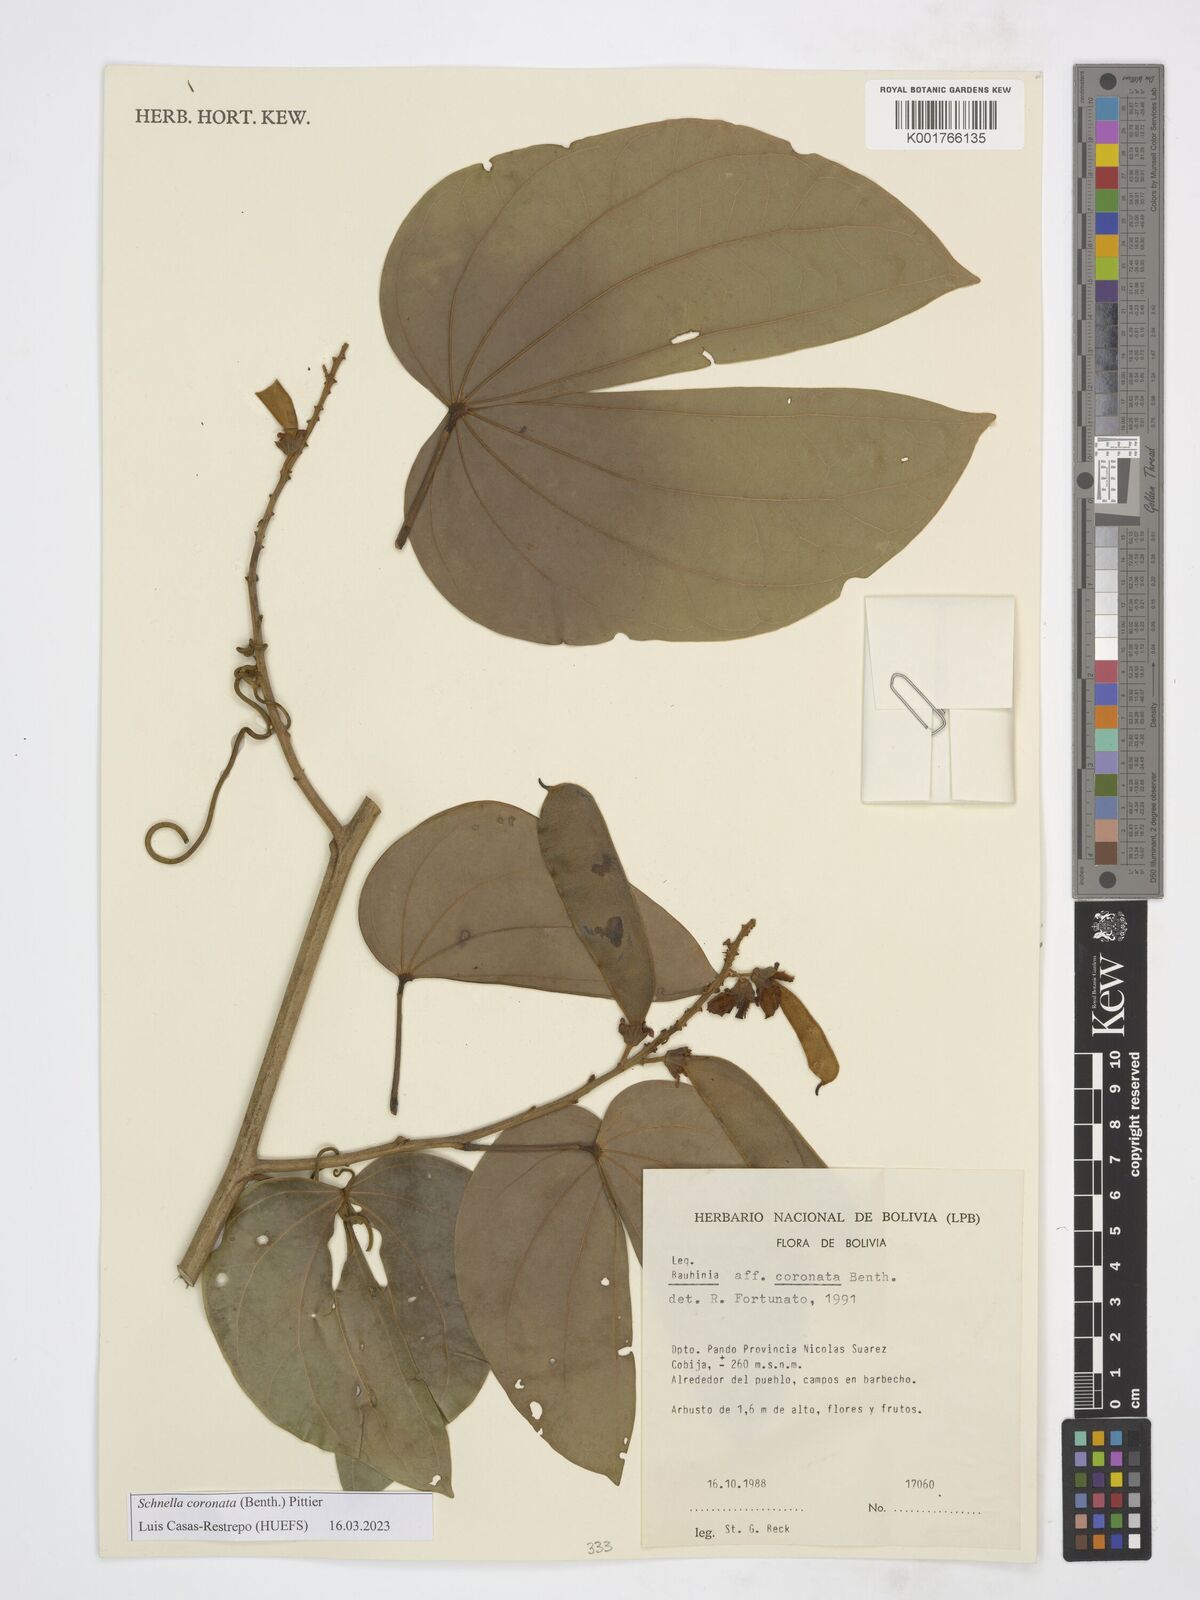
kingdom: Plantae
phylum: Tracheophyta
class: Magnoliopsida
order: Fabales
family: Fabaceae
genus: Schnella
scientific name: Schnella outimouta
